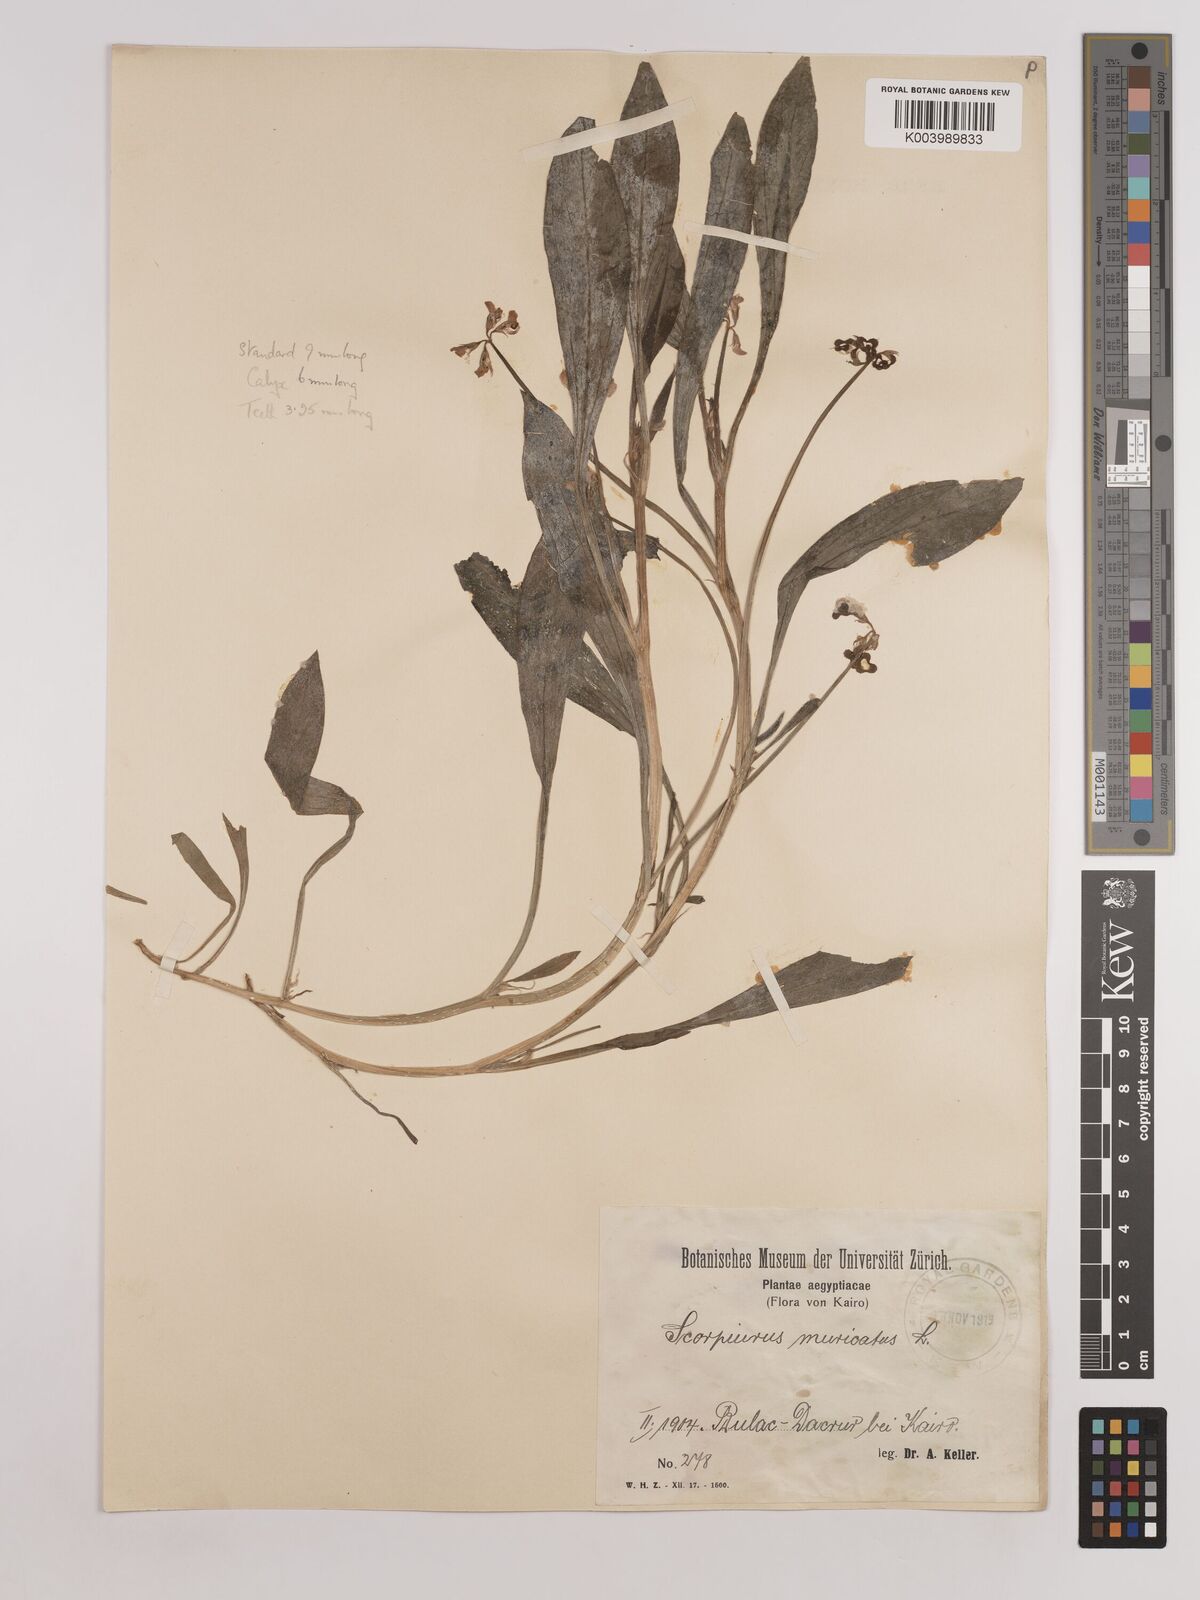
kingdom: Plantae
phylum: Tracheophyta
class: Magnoliopsida
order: Fabales
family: Fabaceae
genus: Scorpiurus
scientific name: Scorpiurus muricatus
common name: Caterpillar-plant
